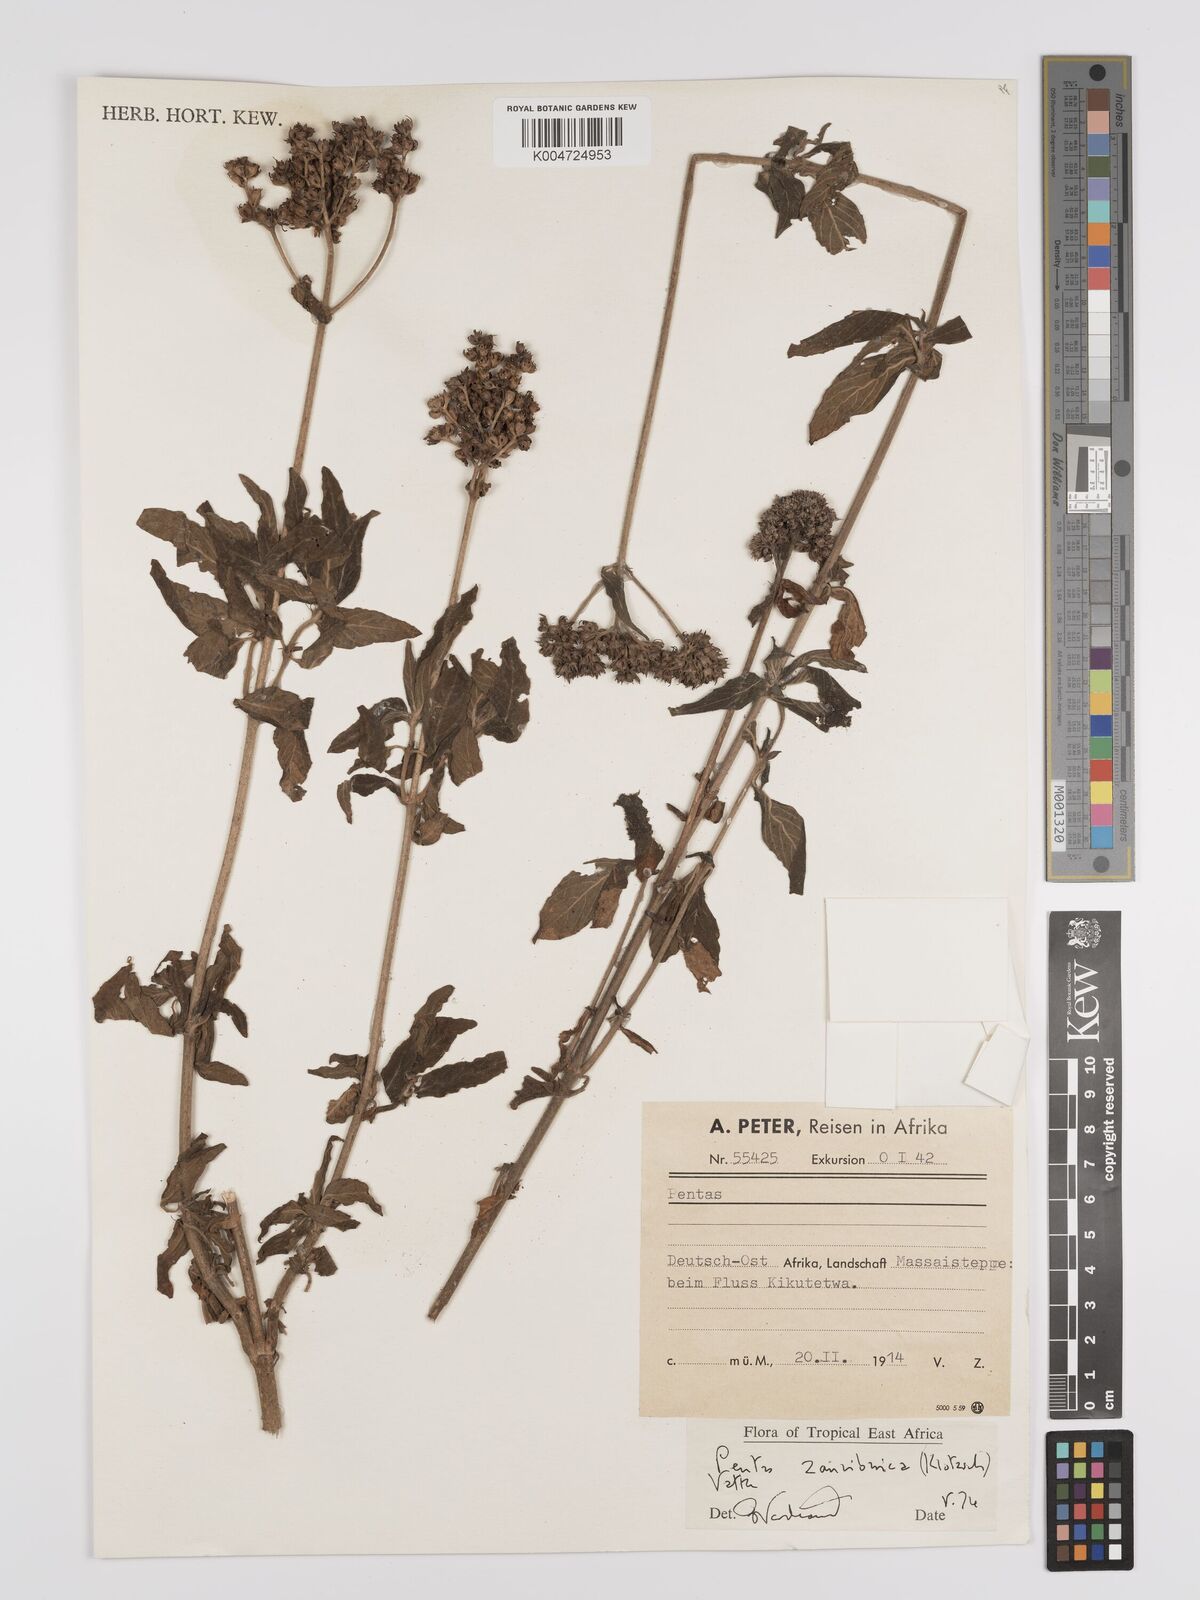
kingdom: Plantae
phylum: Tracheophyta
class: Magnoliopsida
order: Gentianales
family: Rubiaceae
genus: Pentas
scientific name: Pentas zanzibarica
